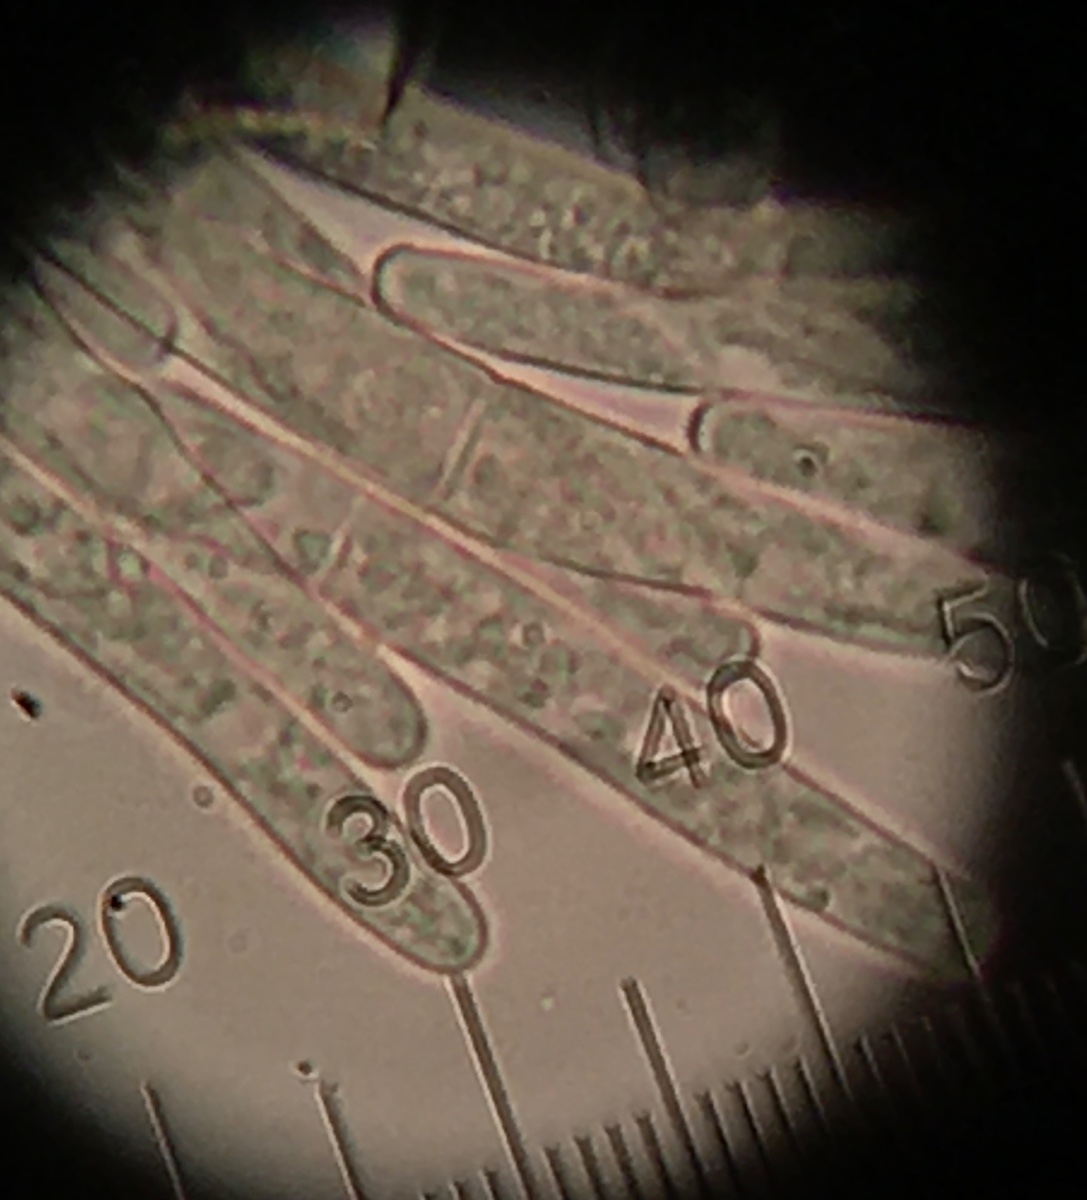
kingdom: Fungi
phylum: Ascomycota
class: Leotiomycetes
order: Helotiales
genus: Thedgonia
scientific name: Thedgonia ligustrina
